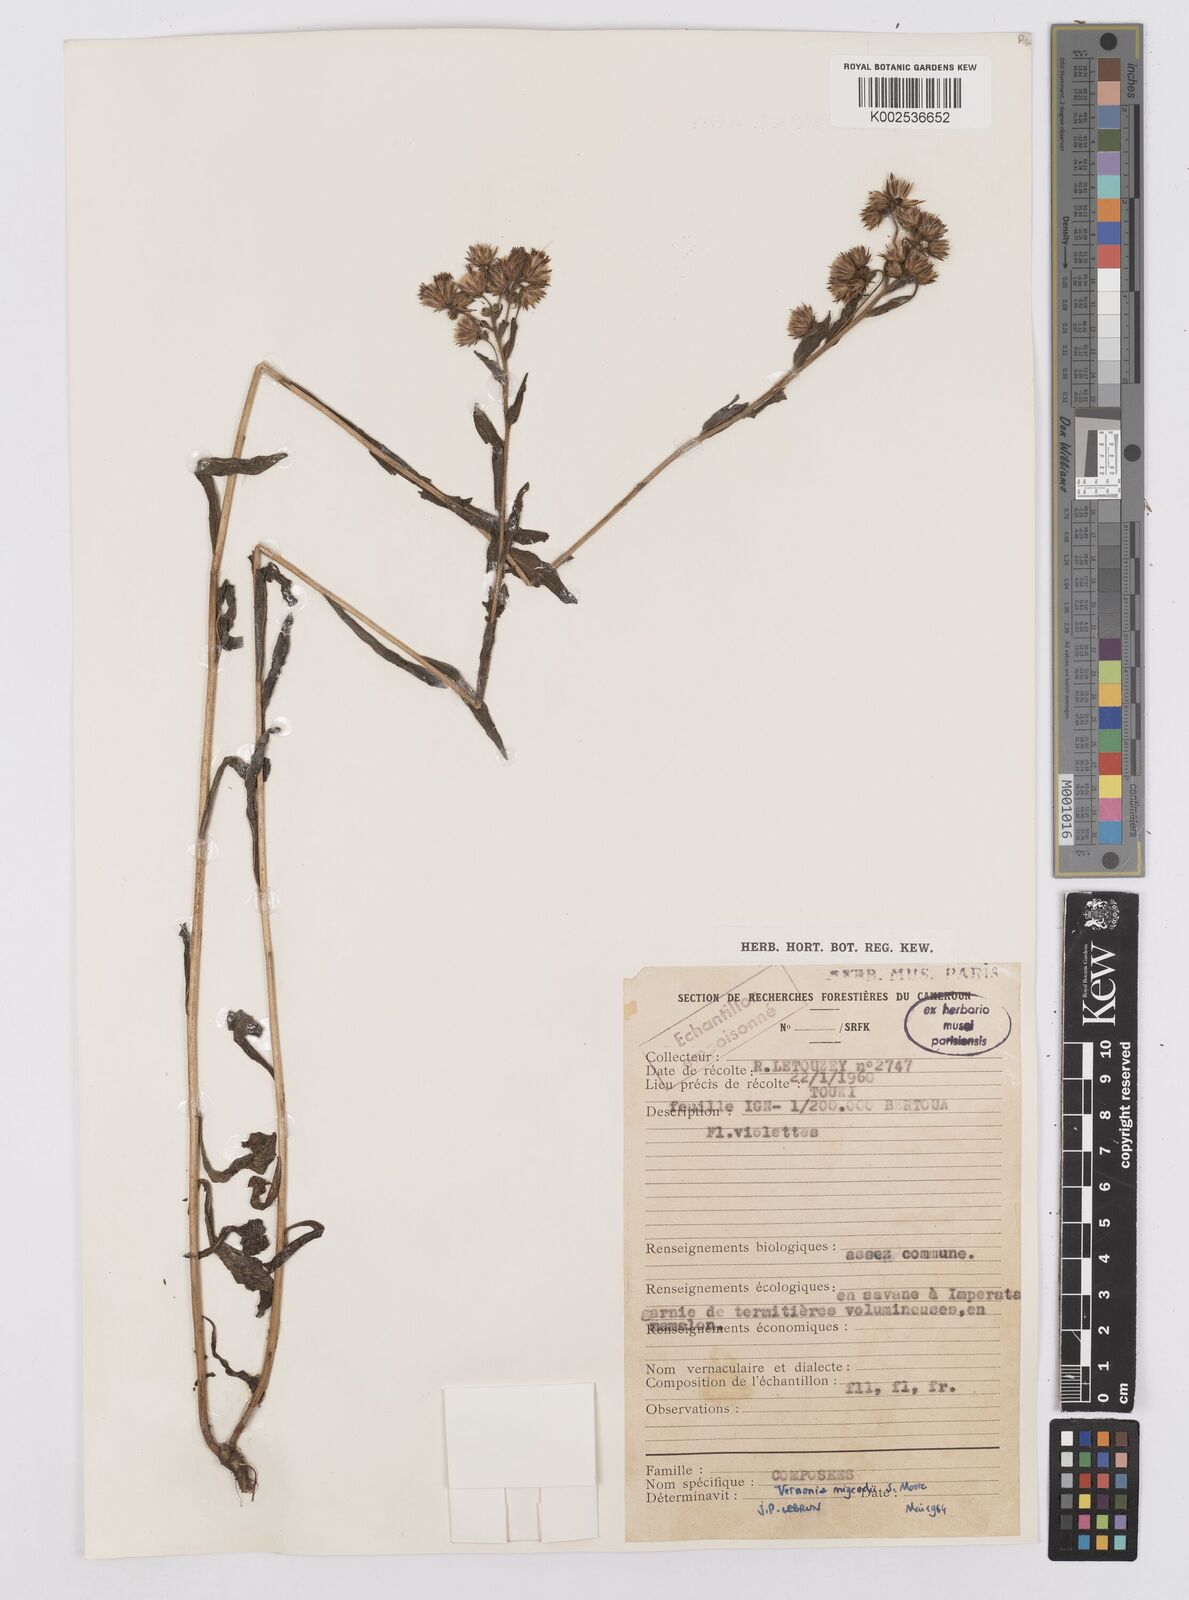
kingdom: Plantae
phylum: Tracheophyta
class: Magnoliopsida
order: Asterales
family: Asteraceae
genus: Vernoniastrum
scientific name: Vernoniastrum migeodii
